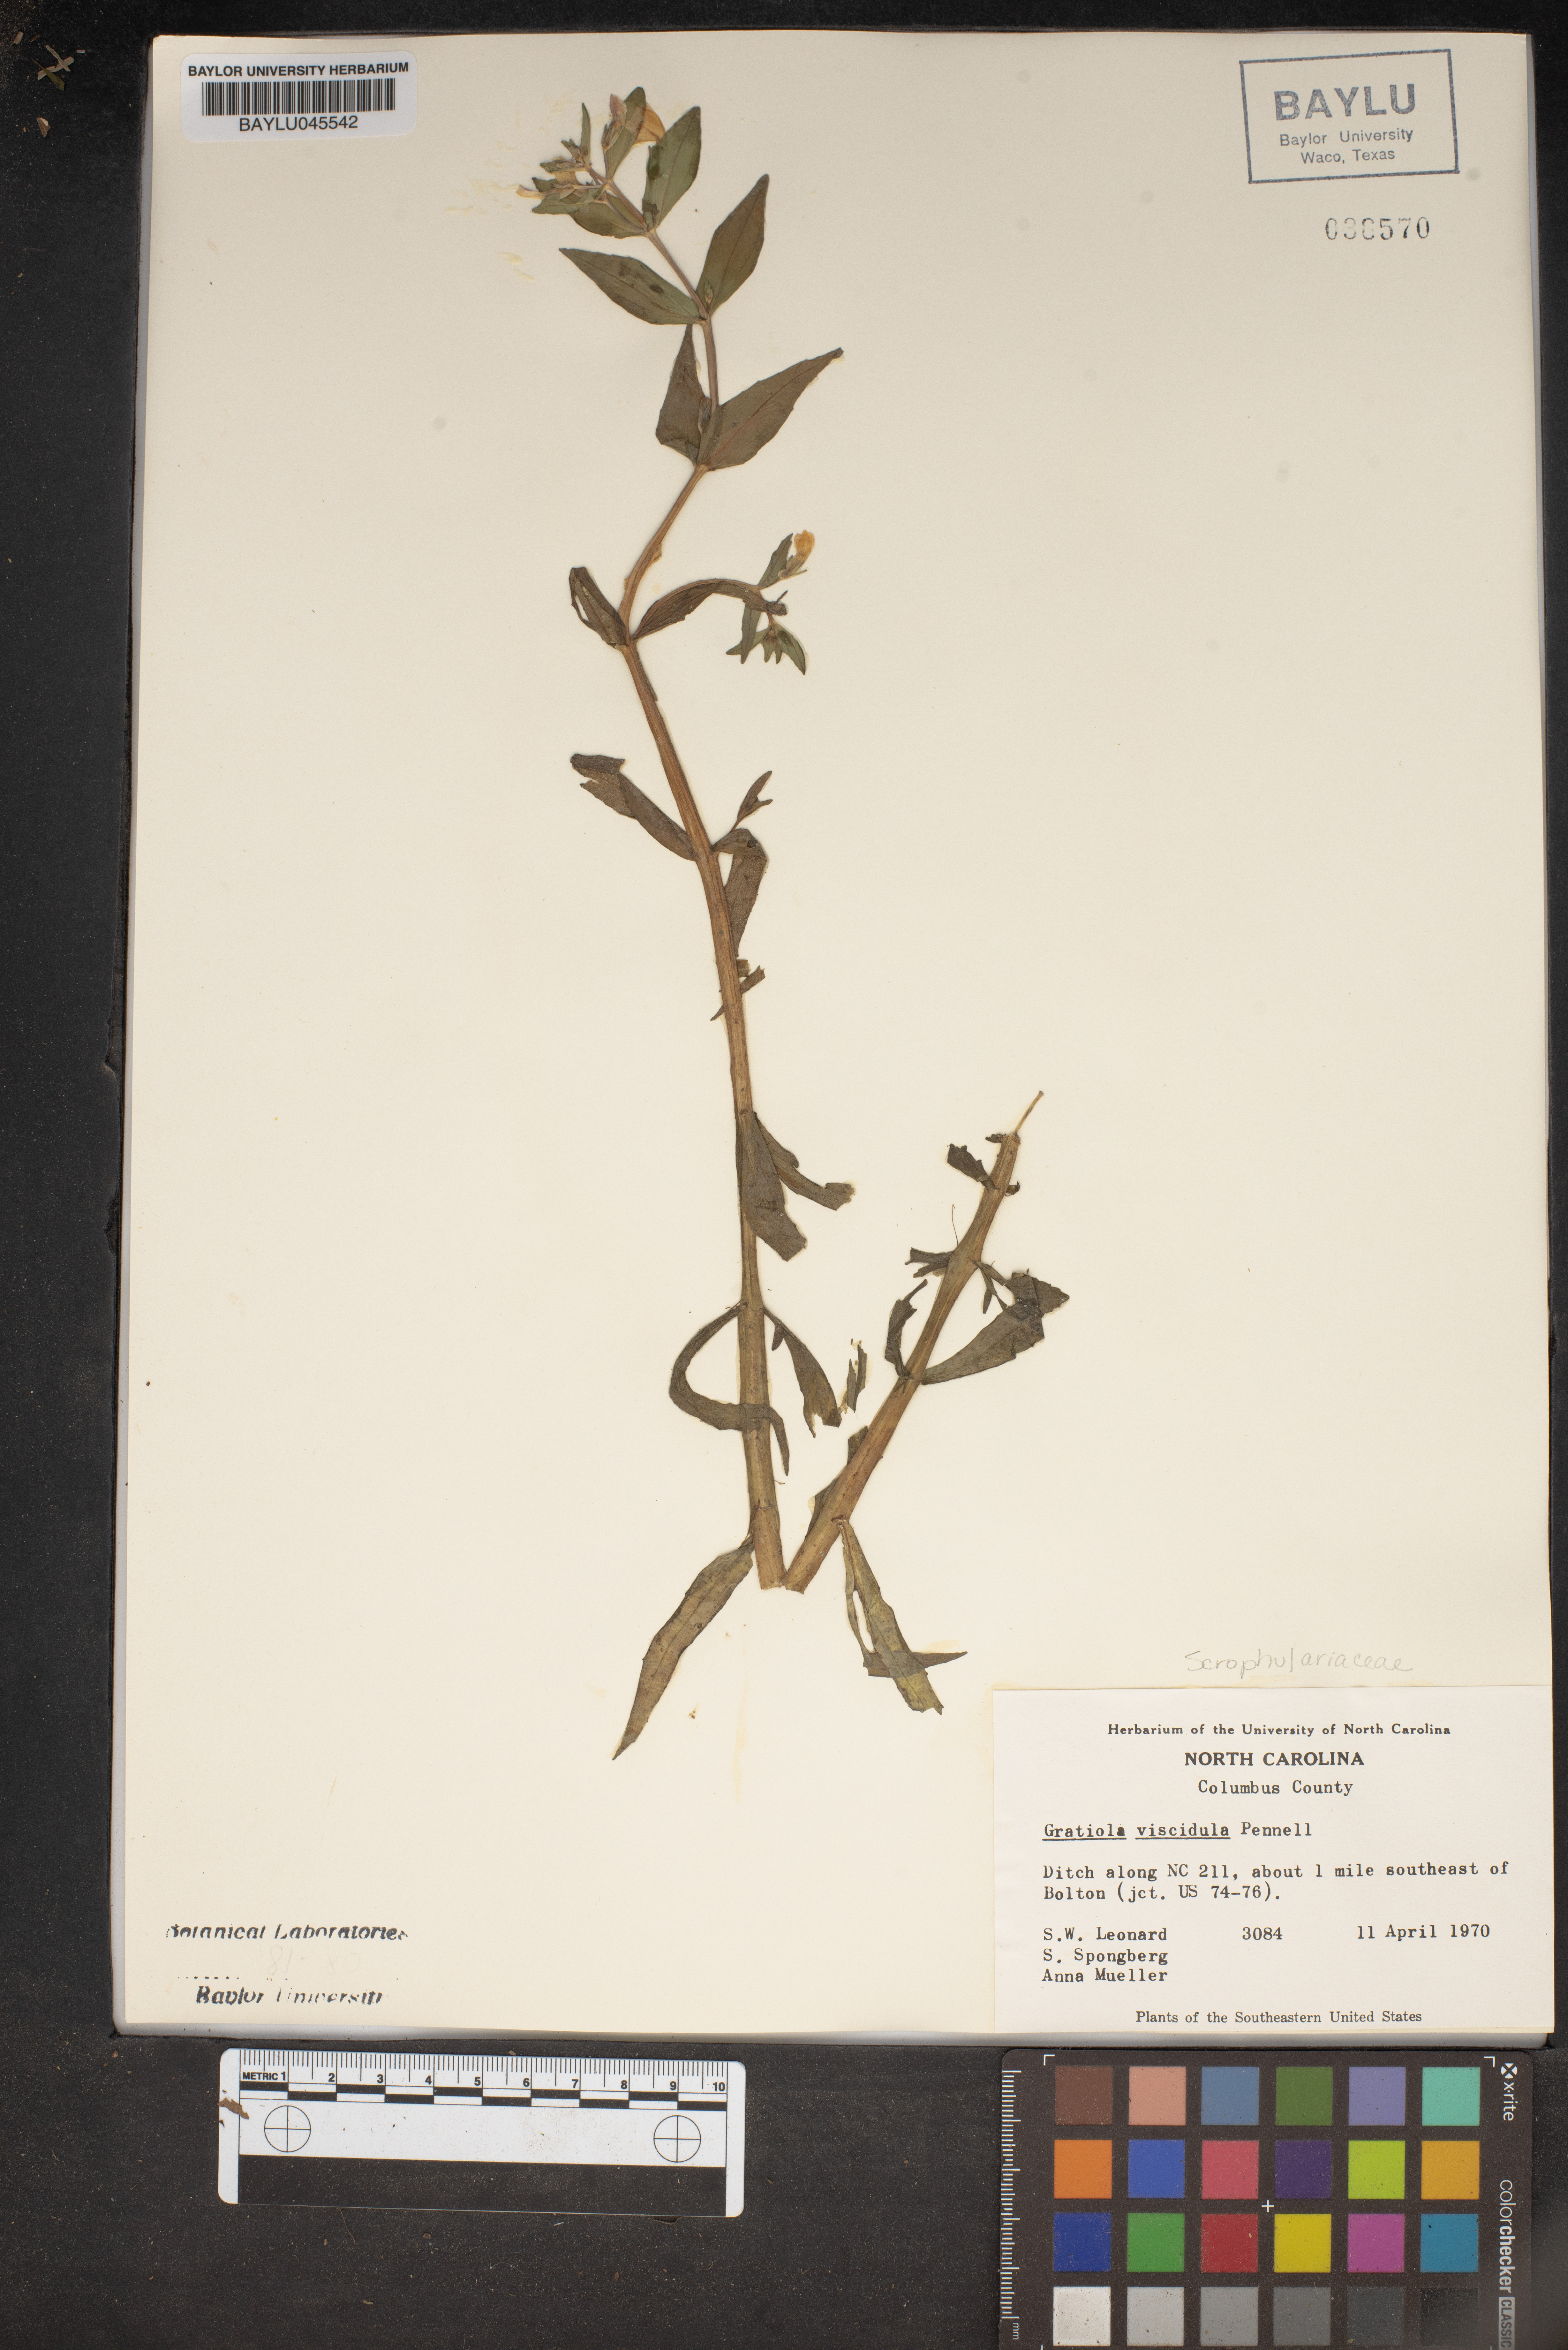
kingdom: Plantae
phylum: Tracheophyta
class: Magnoliopsida
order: Lamiales
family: Plantaginaceae
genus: Gratiola
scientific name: Gratiola viscidula
